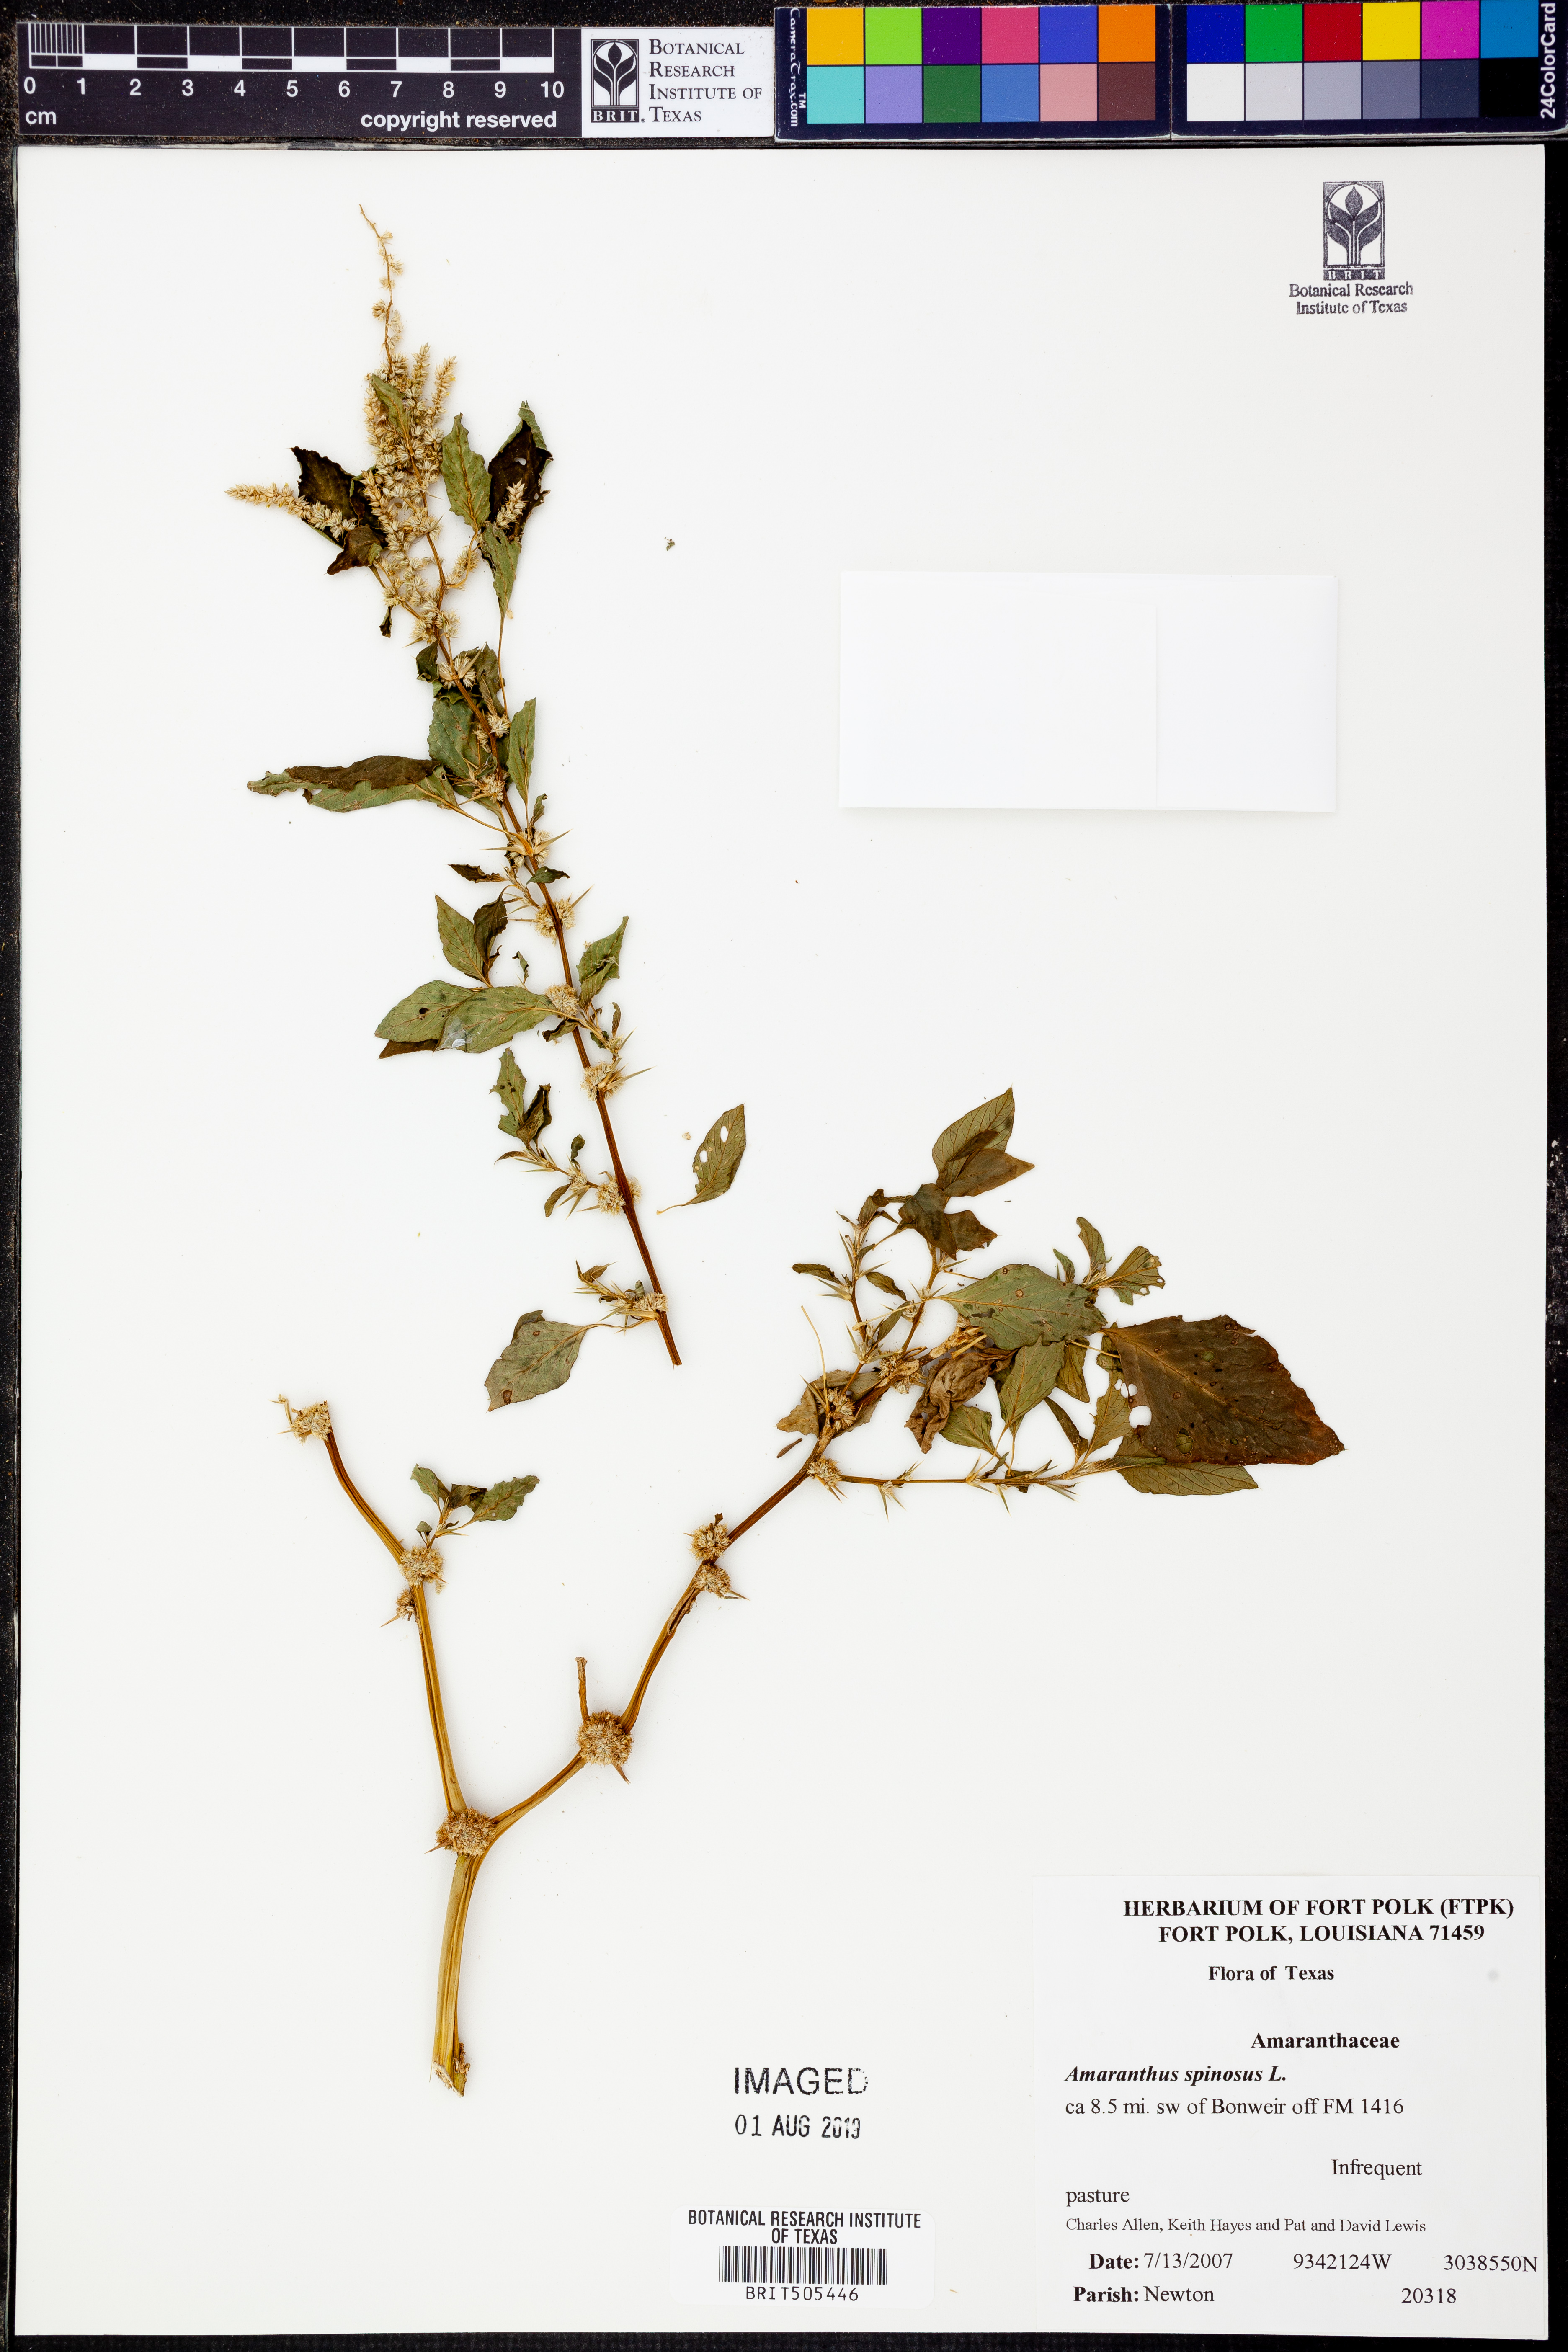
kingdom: Plantae
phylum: Tracheophyta
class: Magnoliopsida
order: Caryophyllales
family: Amaranthaceae
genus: Amaranthus
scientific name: Amaranthus spinosus
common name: Spiny amaranth
